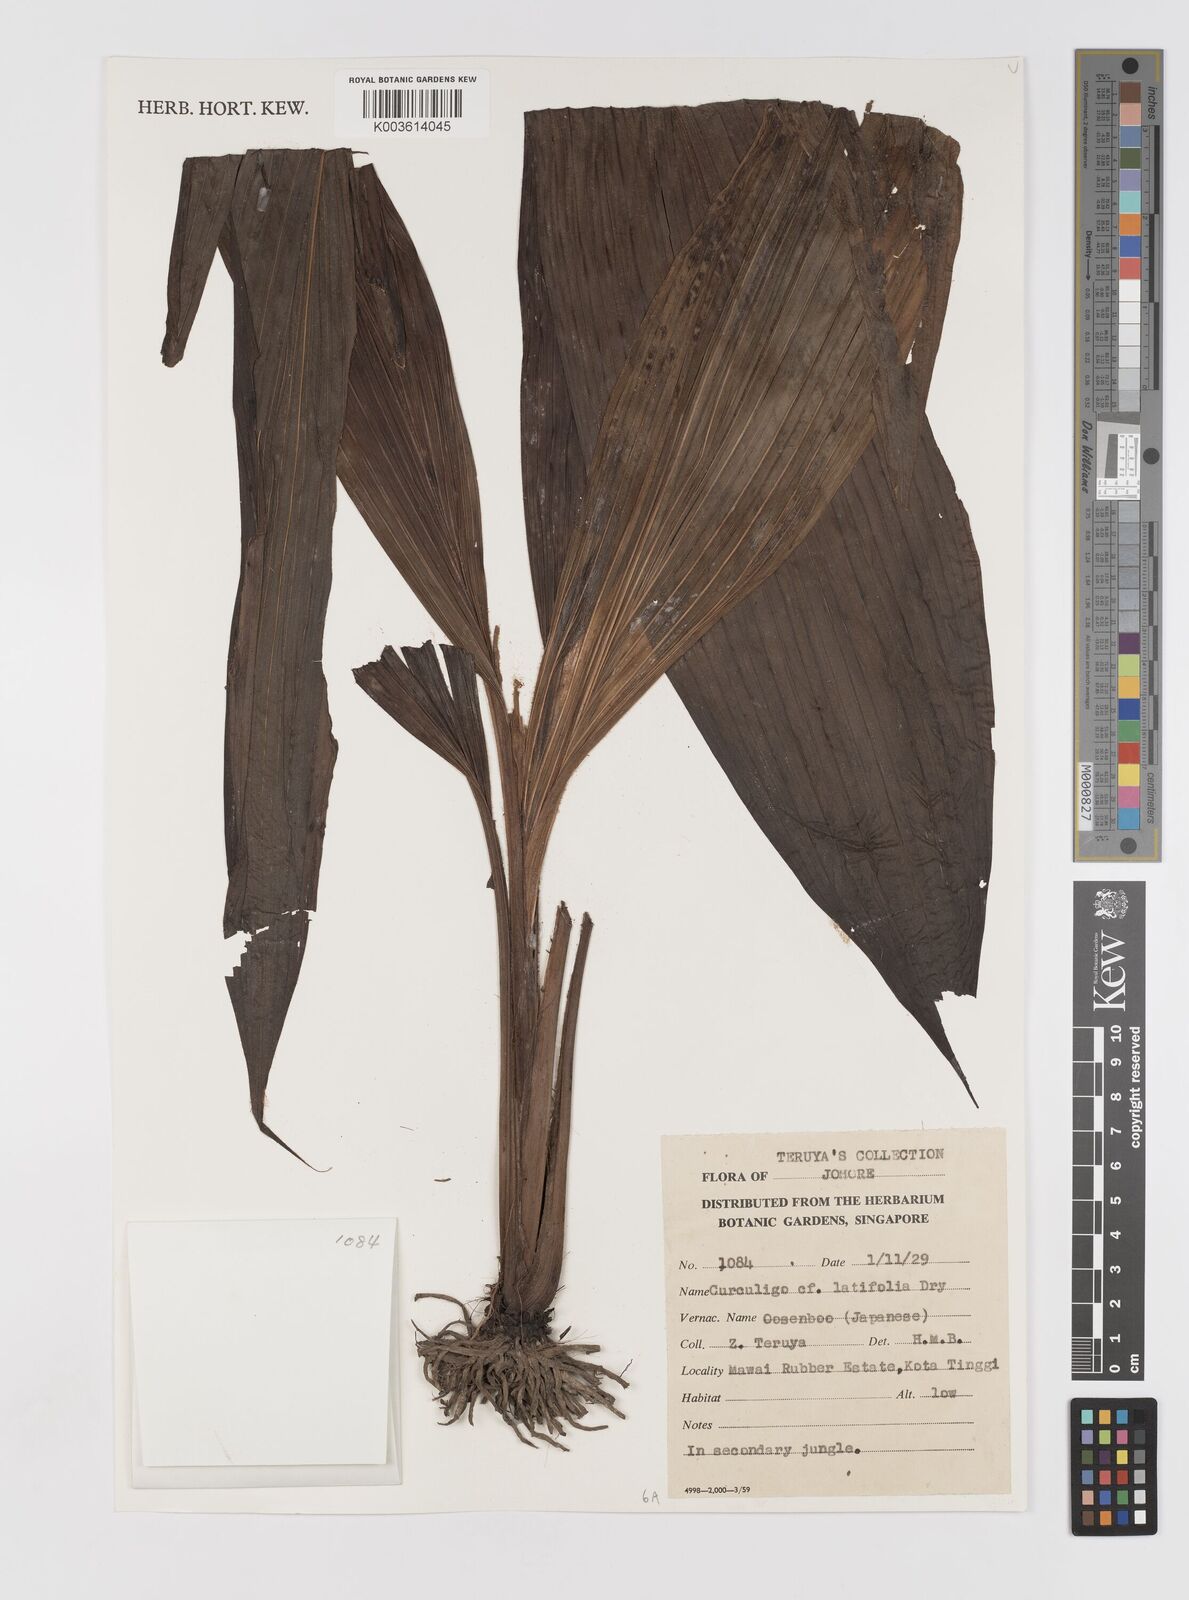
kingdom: Plantae
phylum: Tracheophyta
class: Liliopsida
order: Asparagales
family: Hypoxidaceae
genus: Curculigo
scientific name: Curculigo latifolia
